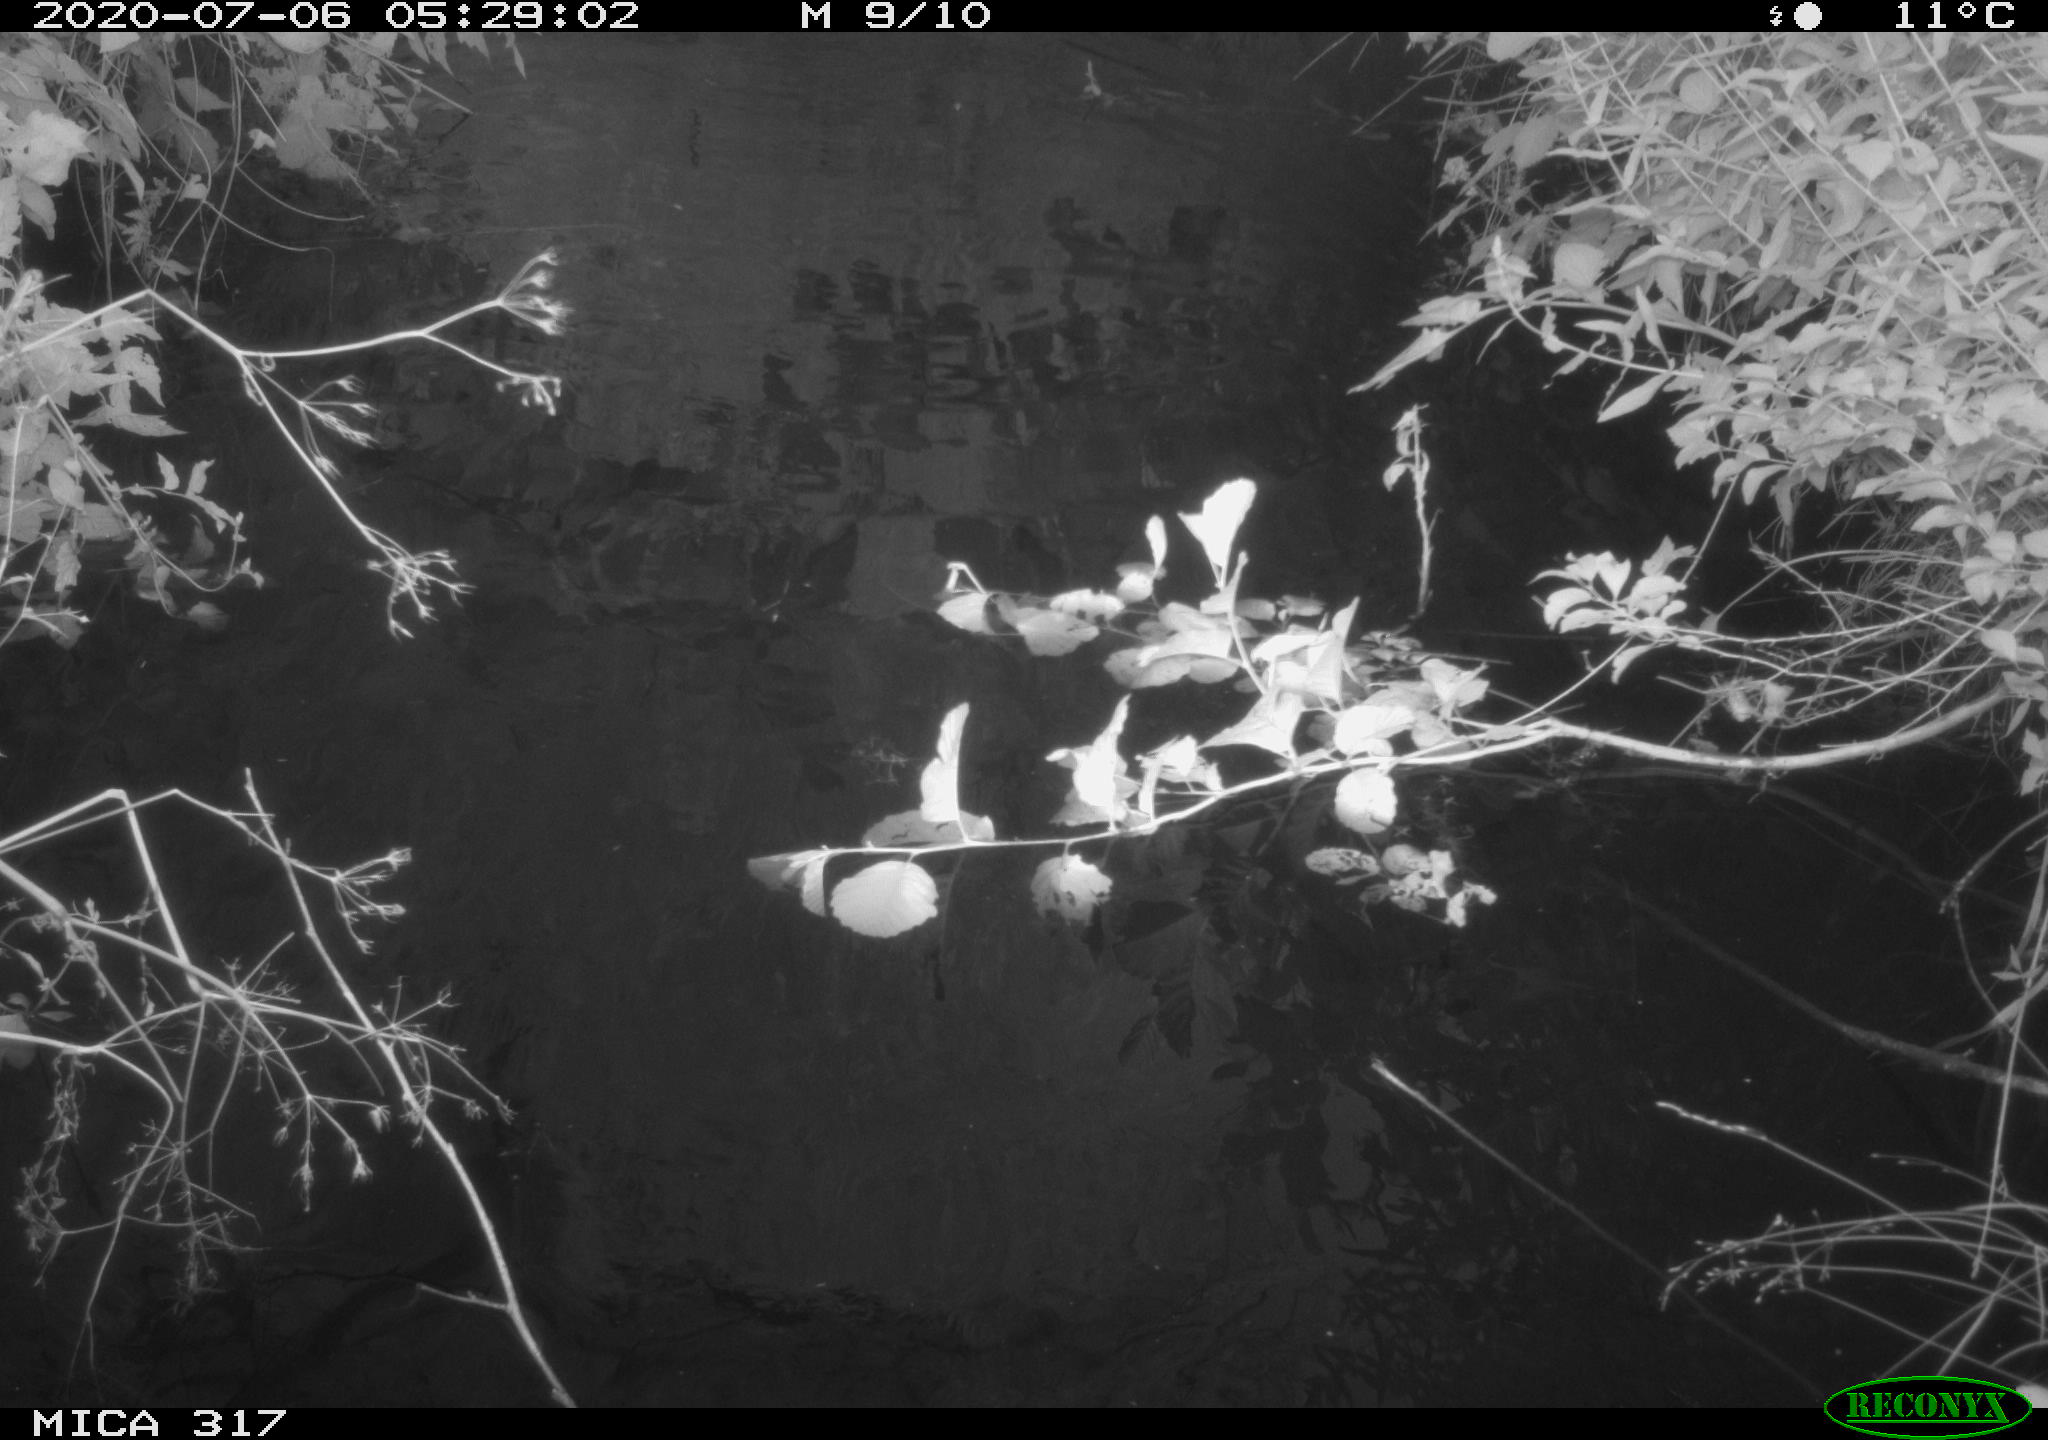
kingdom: Animalia
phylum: Chordata
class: Aves
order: Anseriformes
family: Anatidae
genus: Anas
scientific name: Anas platyrhynchos
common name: Mallard
